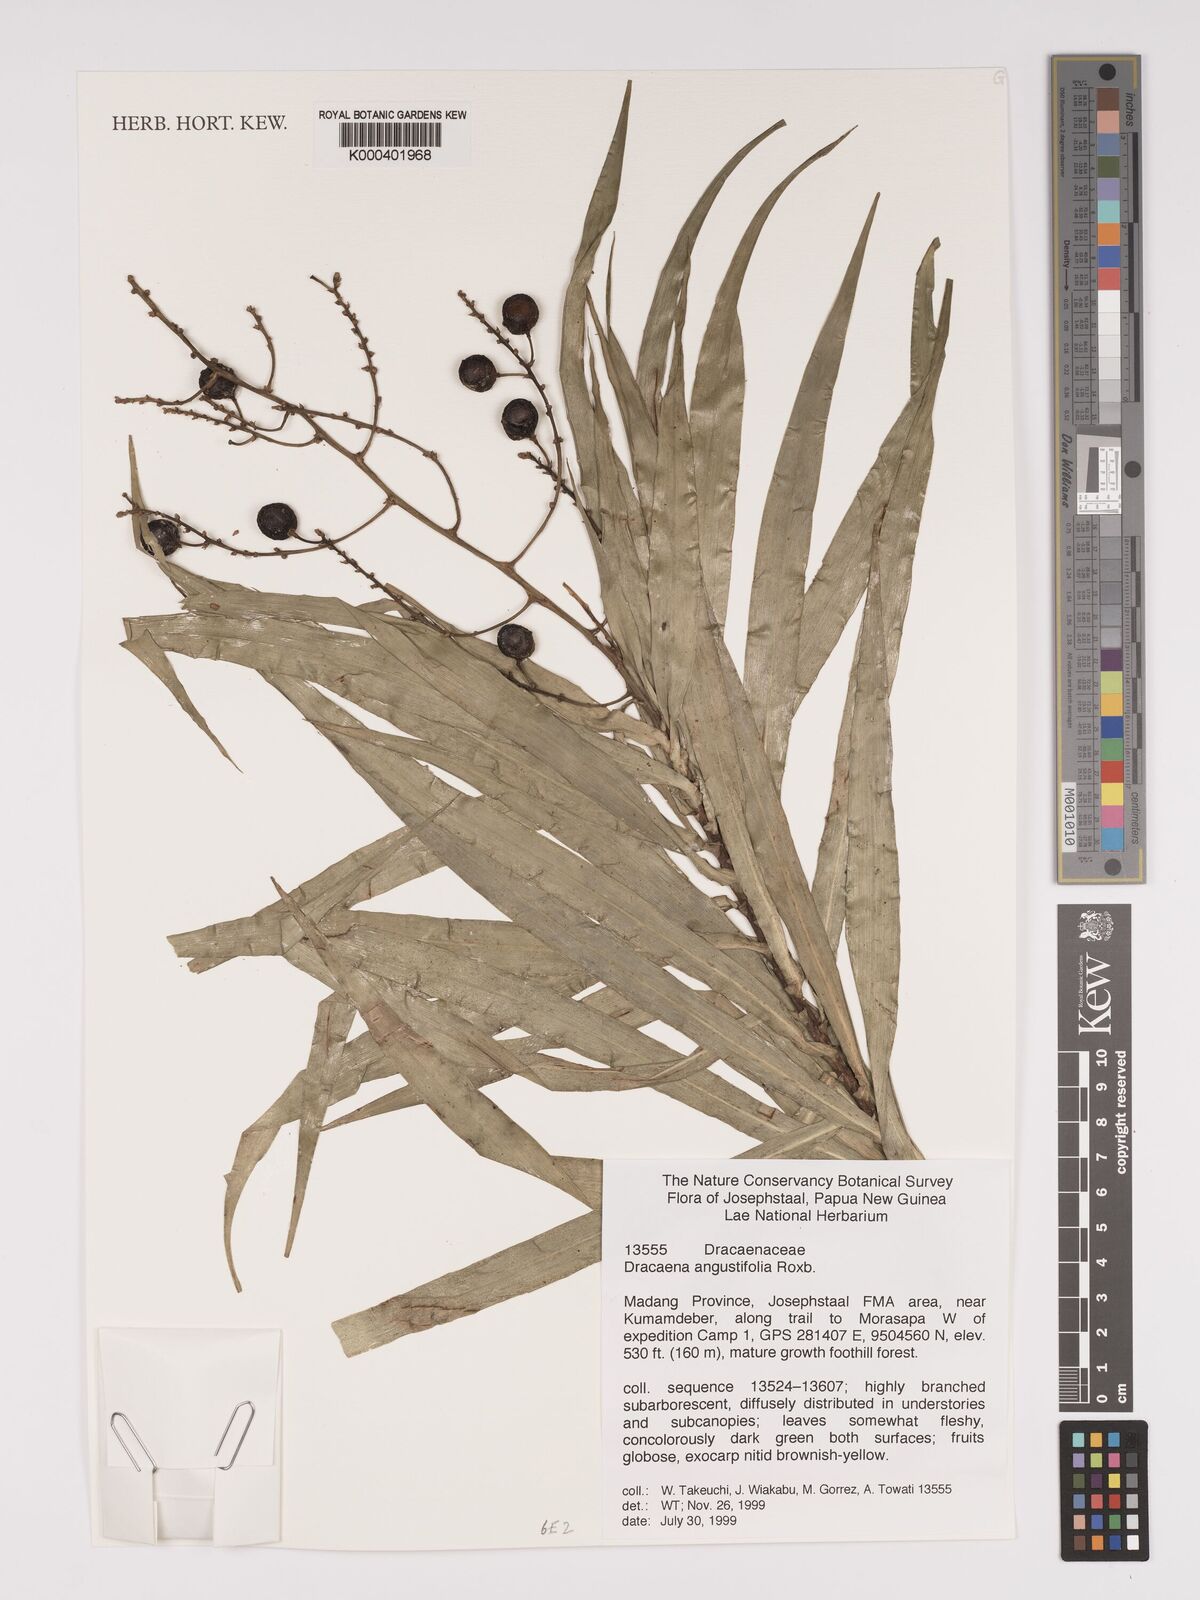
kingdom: Plantae
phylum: Tracheophyta
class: Liliopsida
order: Asparagales
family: Asparagaceae
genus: Dracaena
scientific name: Dracaena angustifolia
